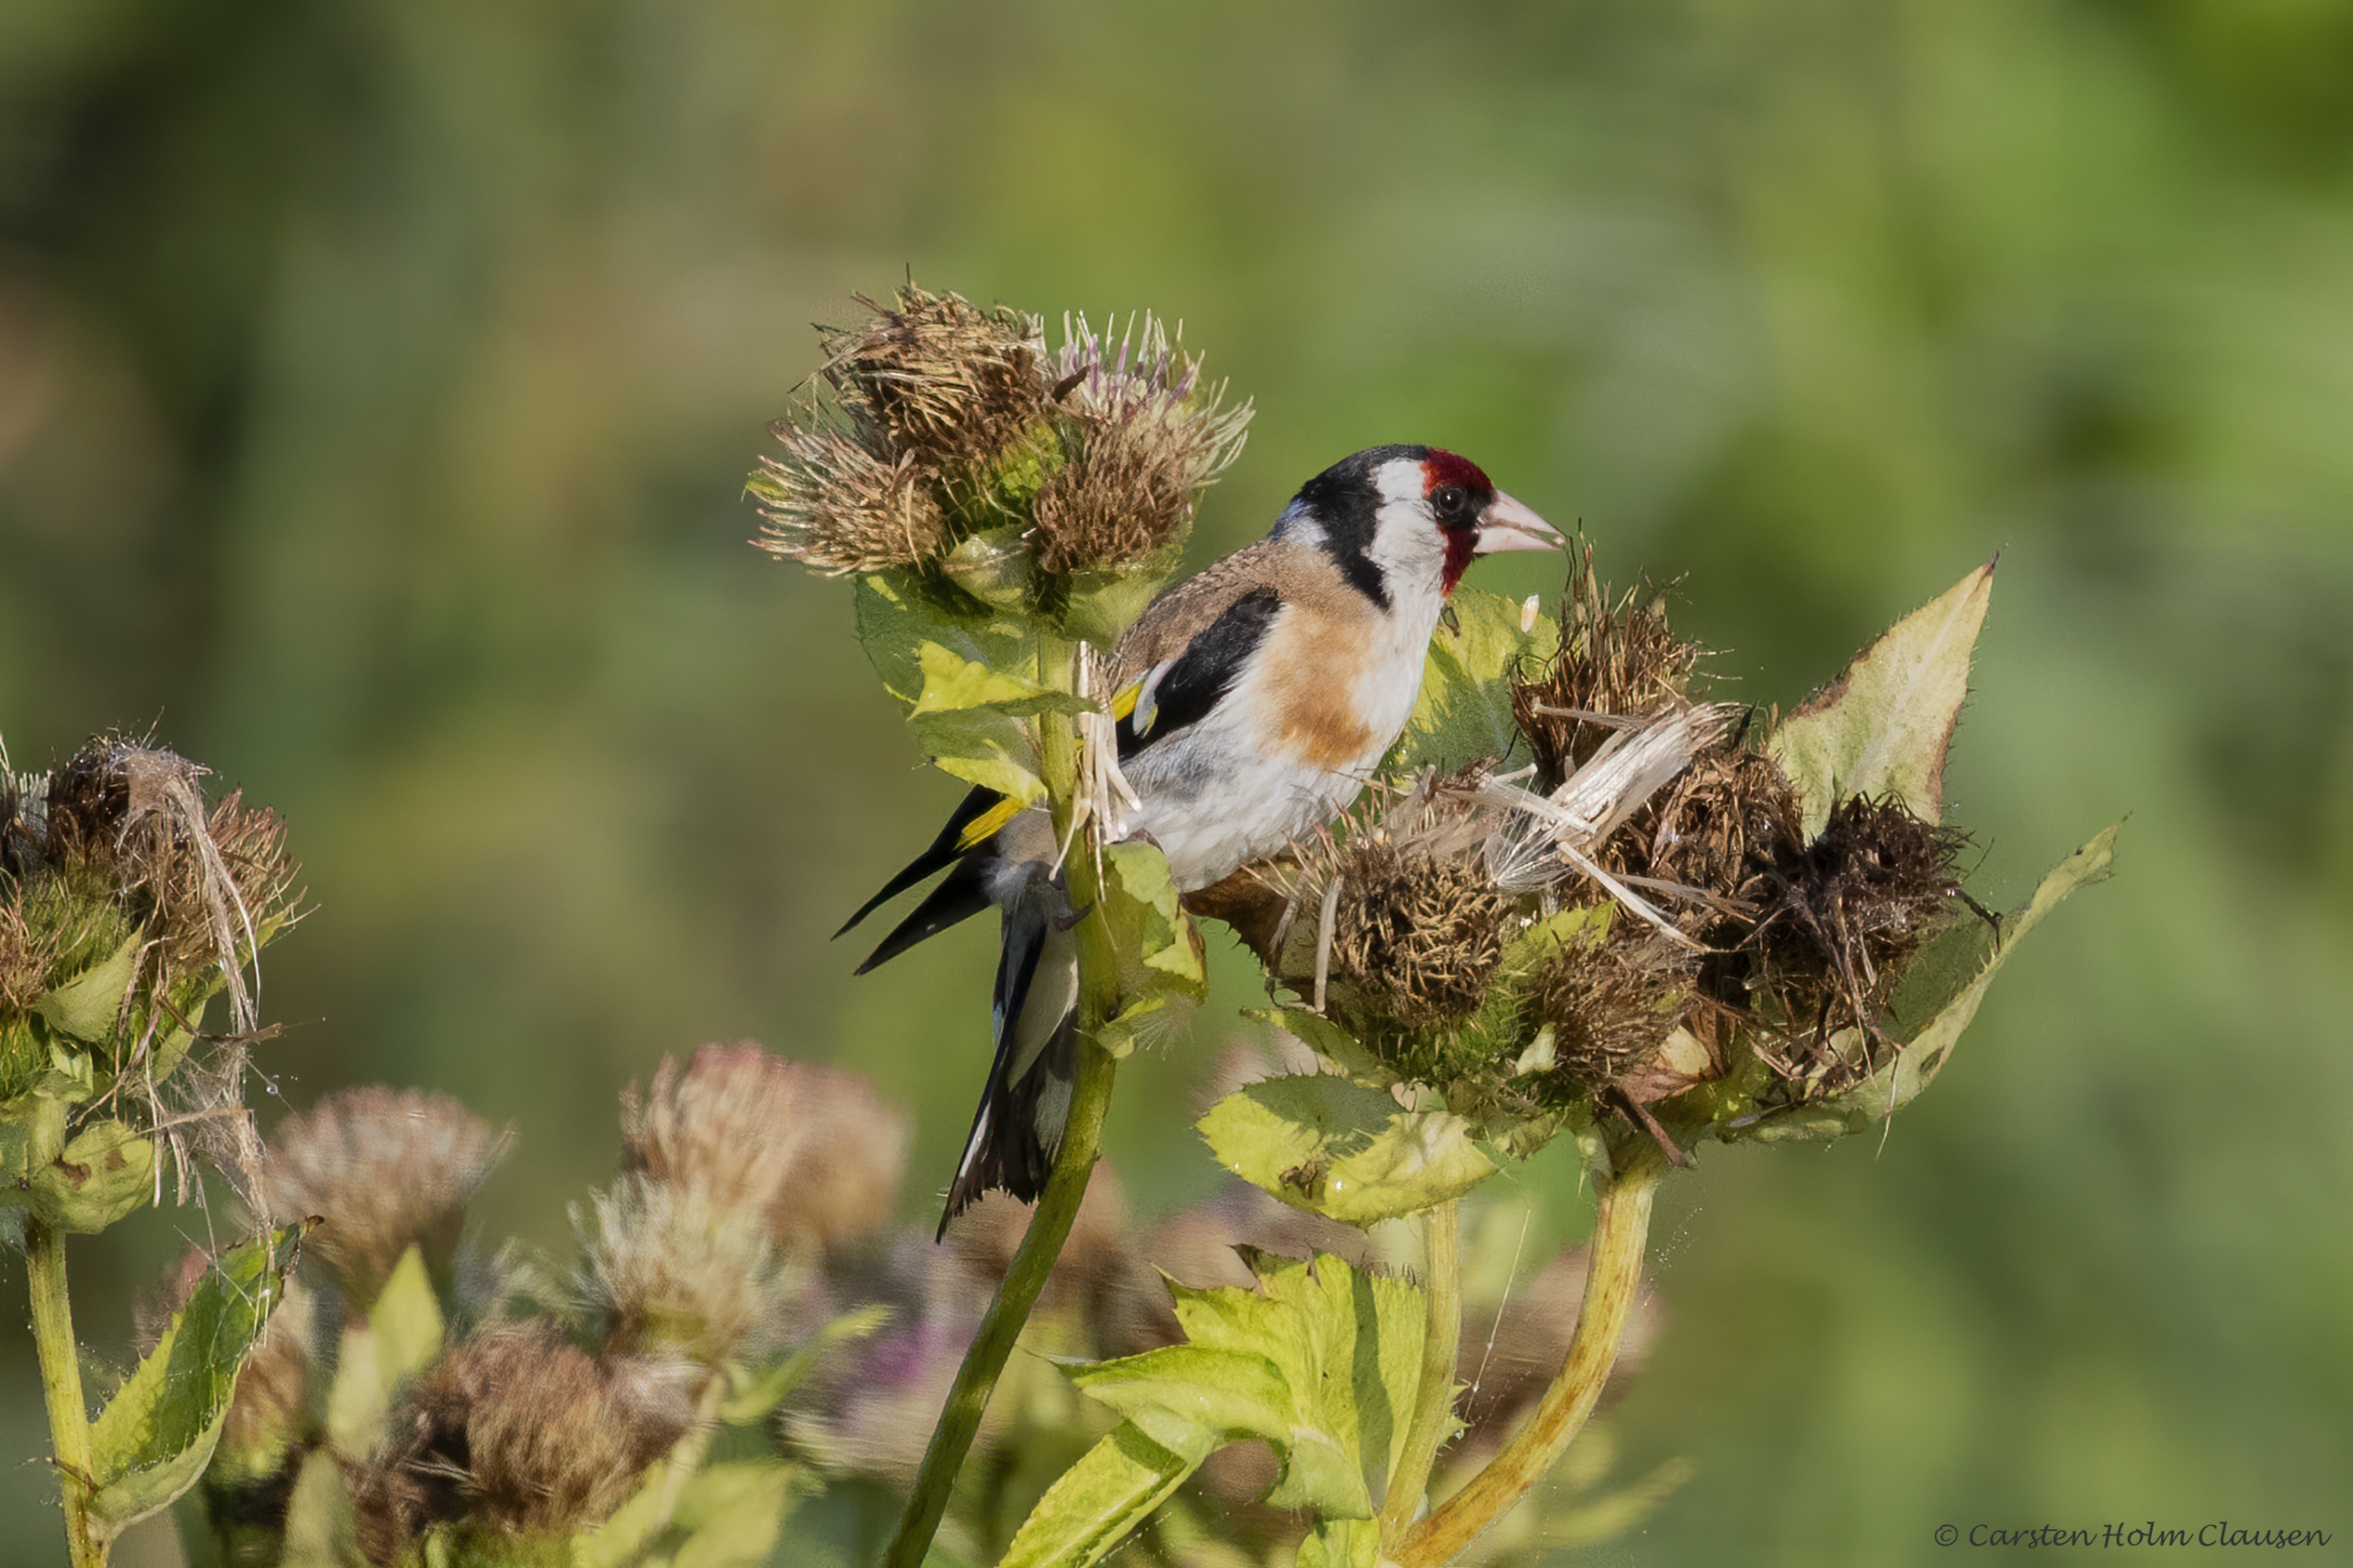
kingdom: Animalia
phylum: Chordata
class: Aves
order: Passeriformes
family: Fringillidae
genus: Carduelis
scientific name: Carduelis carduelis
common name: Stillits
